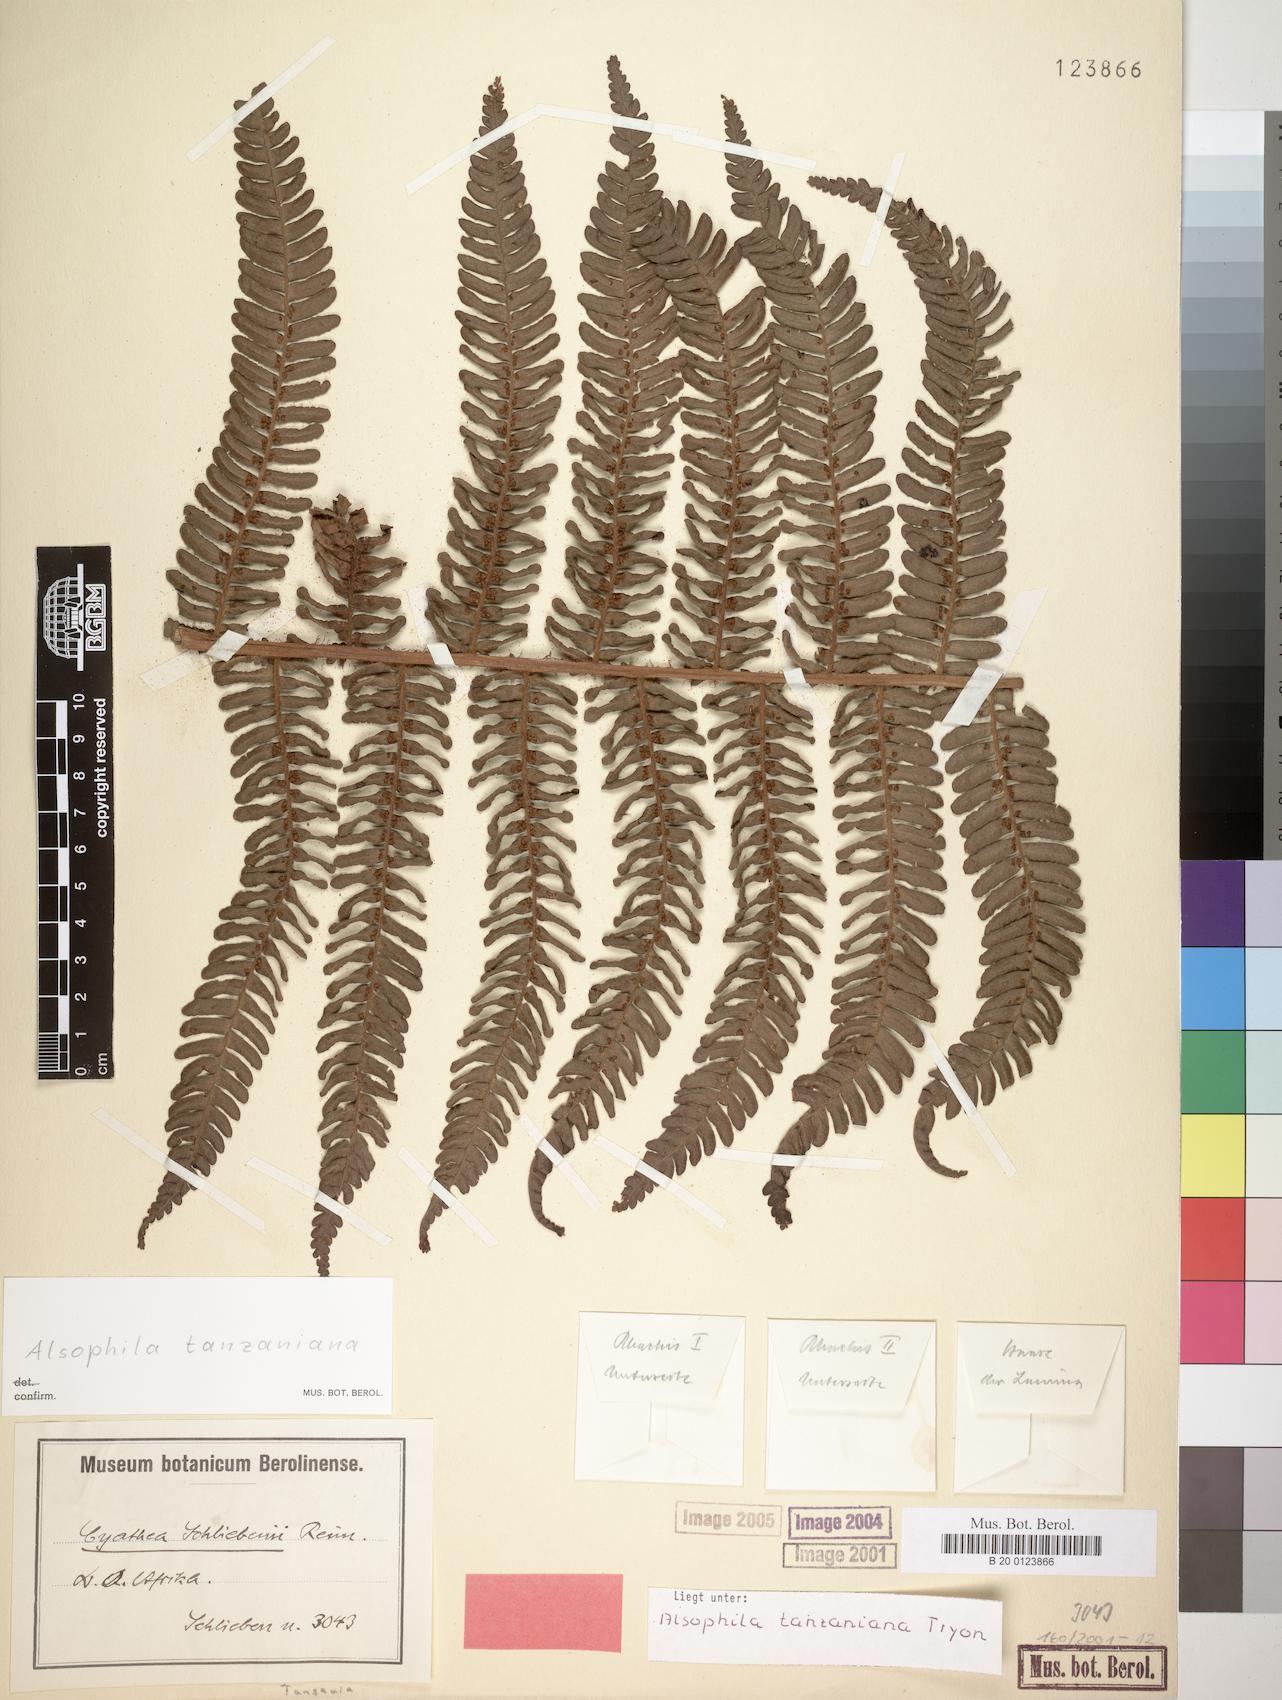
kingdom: Plantae
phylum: Tracheophyta
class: Polypodiopsida
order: Cyatheales
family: Cyatheaceae
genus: Alsophila
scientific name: Alsophila tanzaniana
